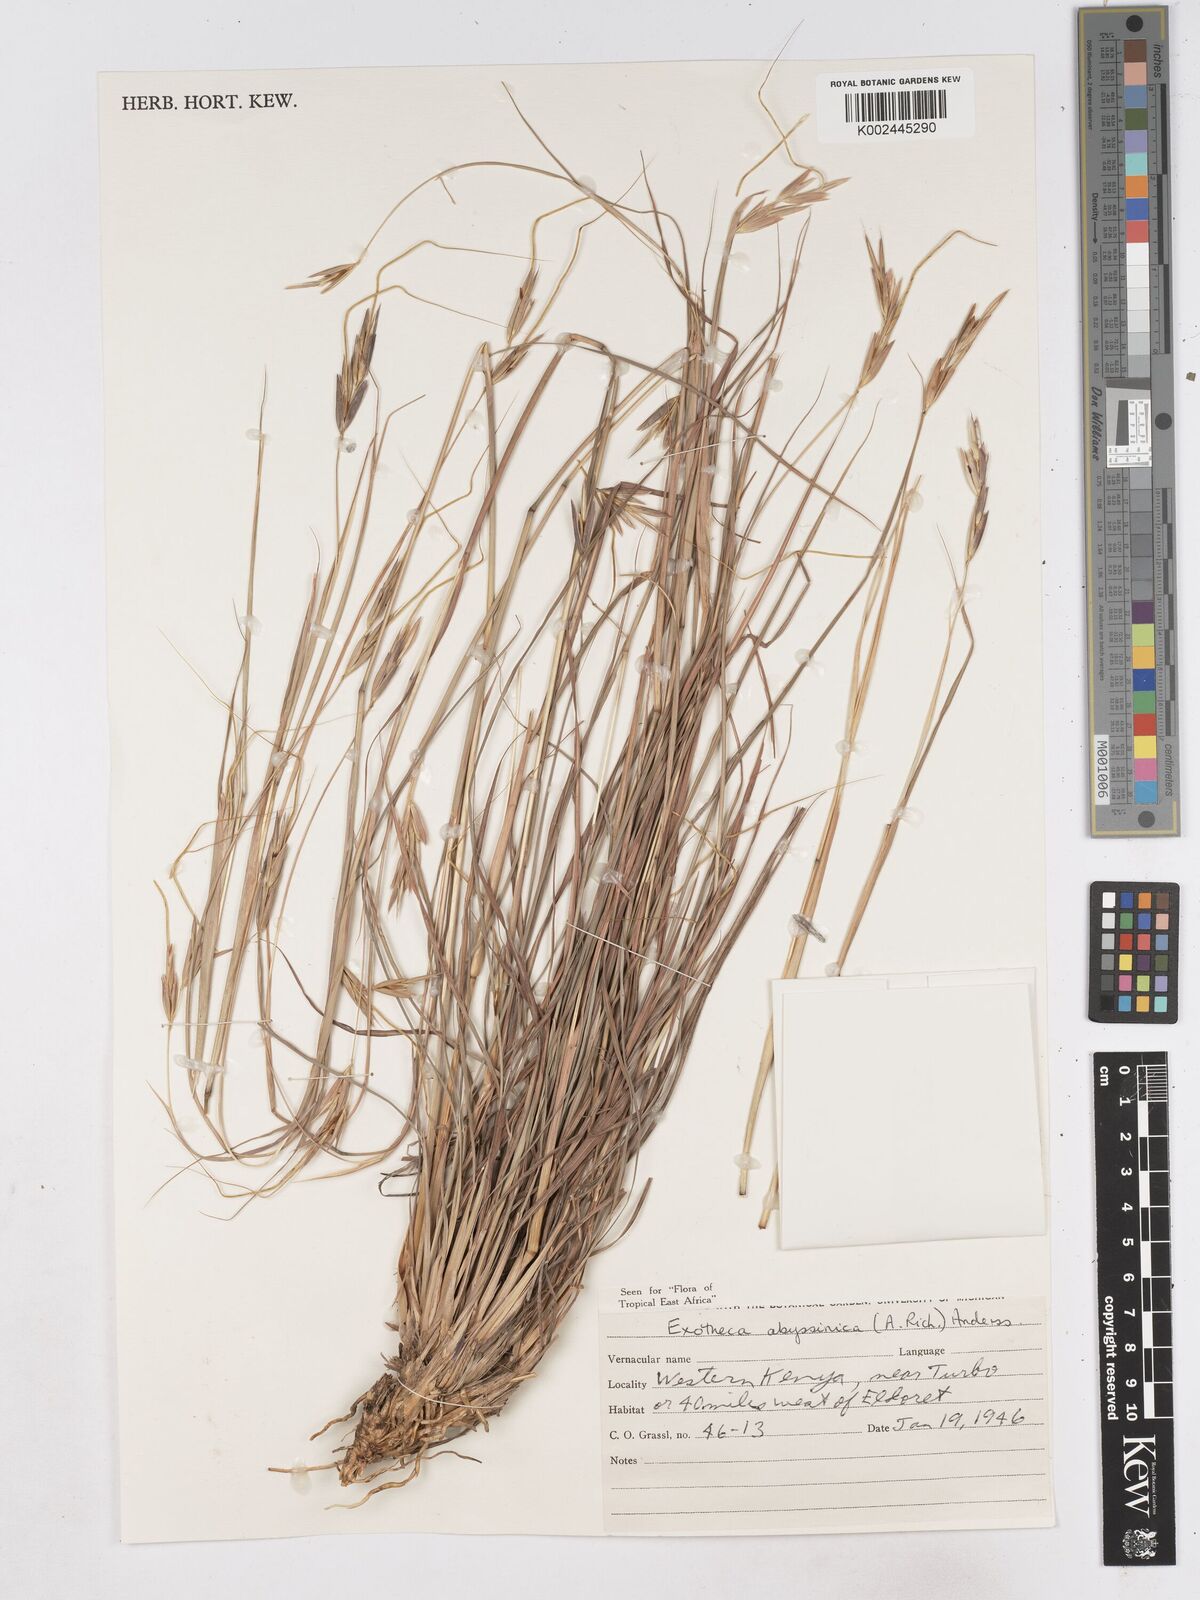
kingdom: Plantae
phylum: Tracheophyta
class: Liliopsida
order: Poales
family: Poaceae
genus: Exotheca
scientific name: Exotheca abyssinica
